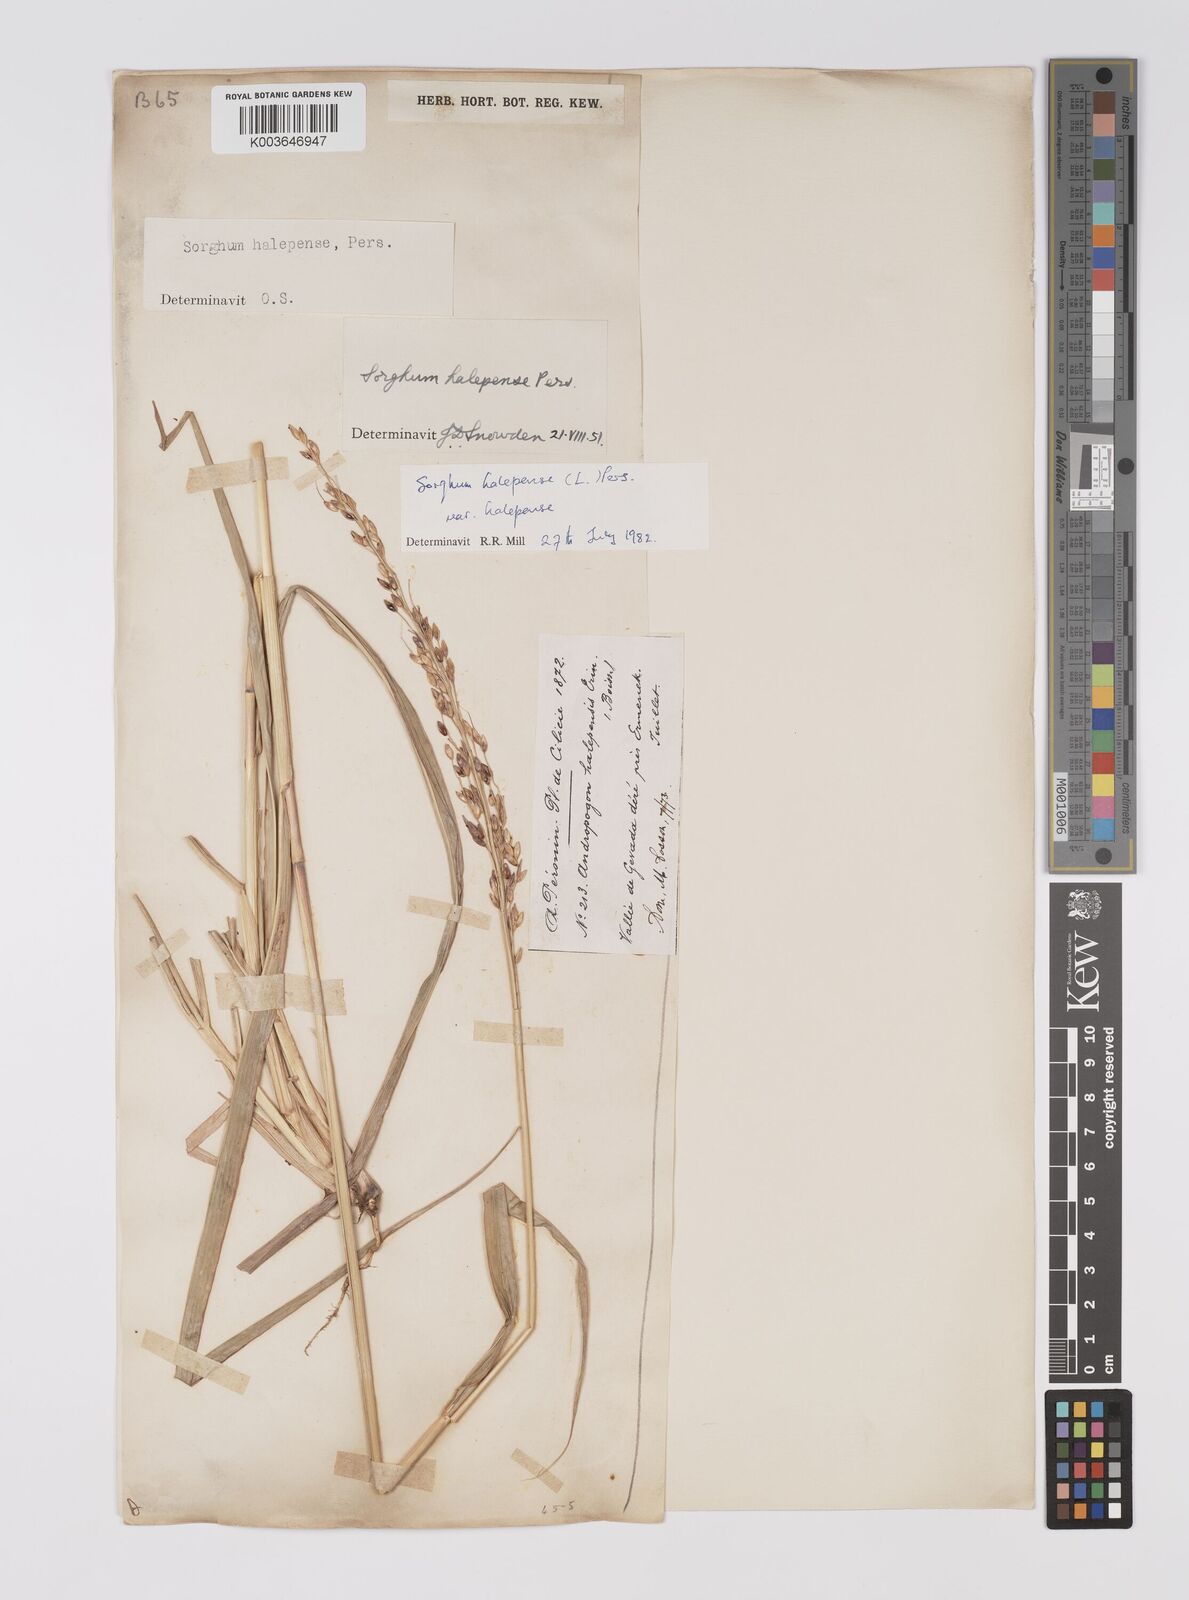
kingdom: Plantae
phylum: Tracheophyta
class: Liliopsida
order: Poales
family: Poaceae
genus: Sorghum
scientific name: Sorghum halepense
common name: Johnson-grass
